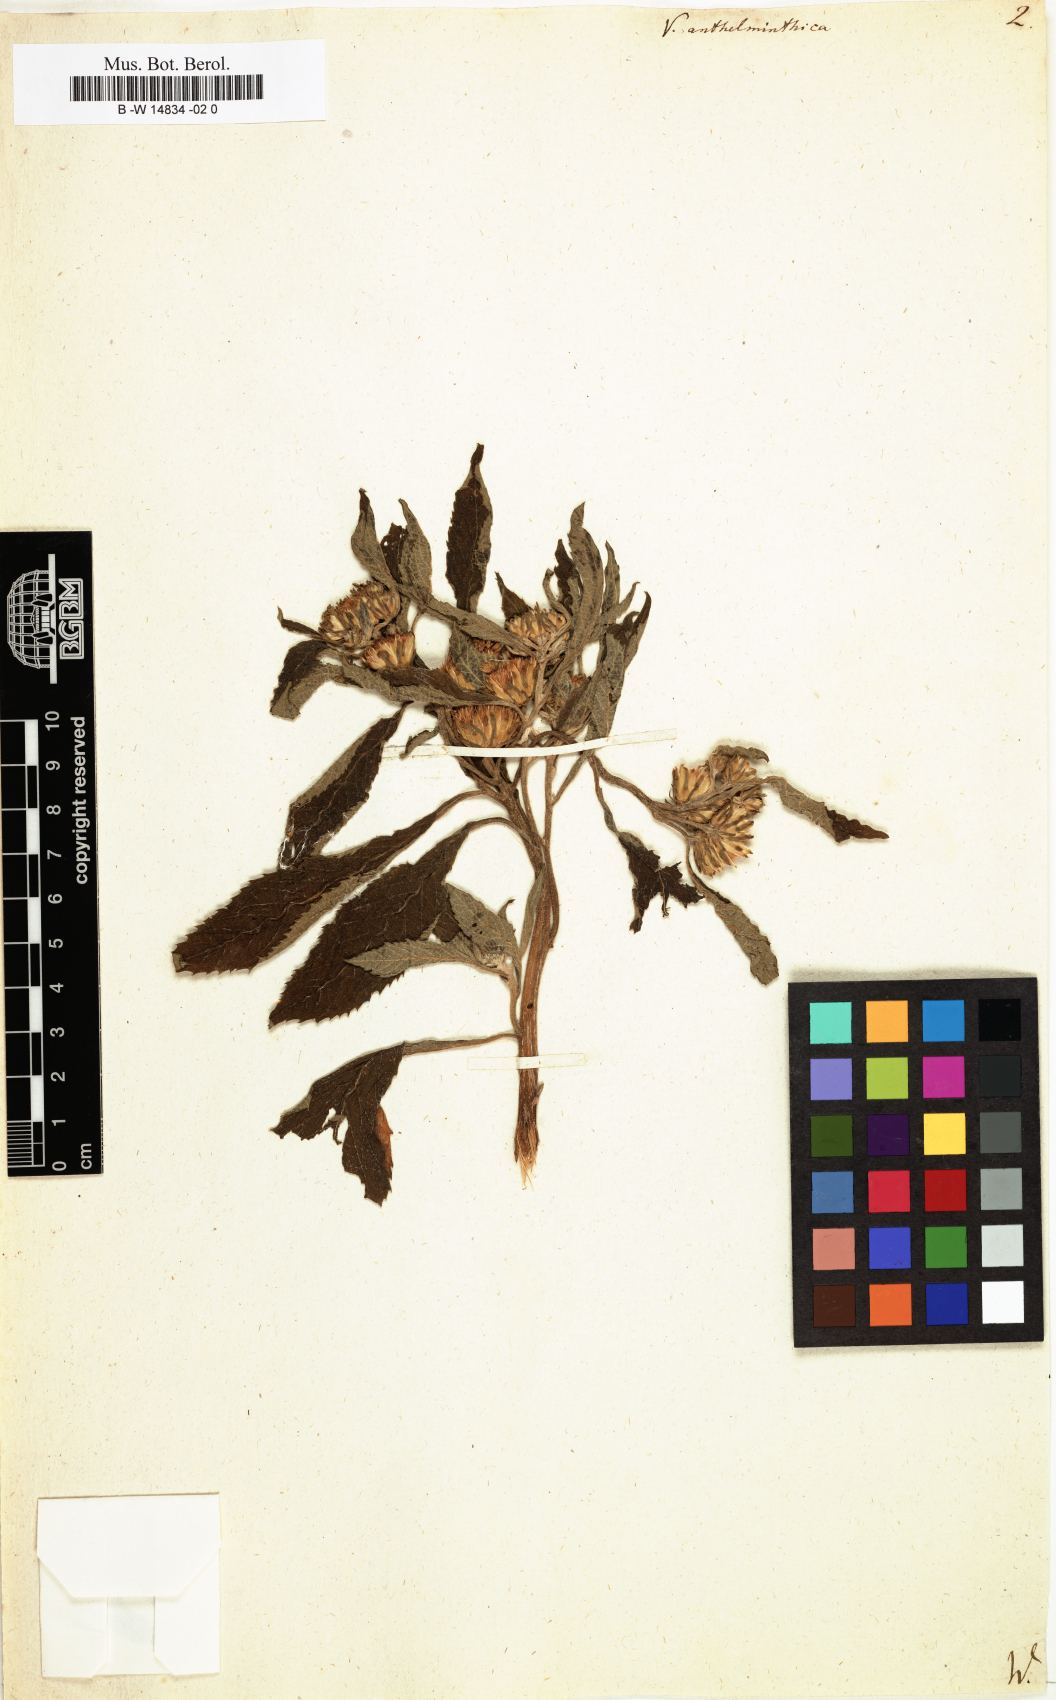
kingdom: Plantae
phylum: Tracheophyta
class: Magnoliopsida
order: Asterales
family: Asteraceae
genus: Baccharoides
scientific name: Baccharoides anthelmintica
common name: Kinka-oil
